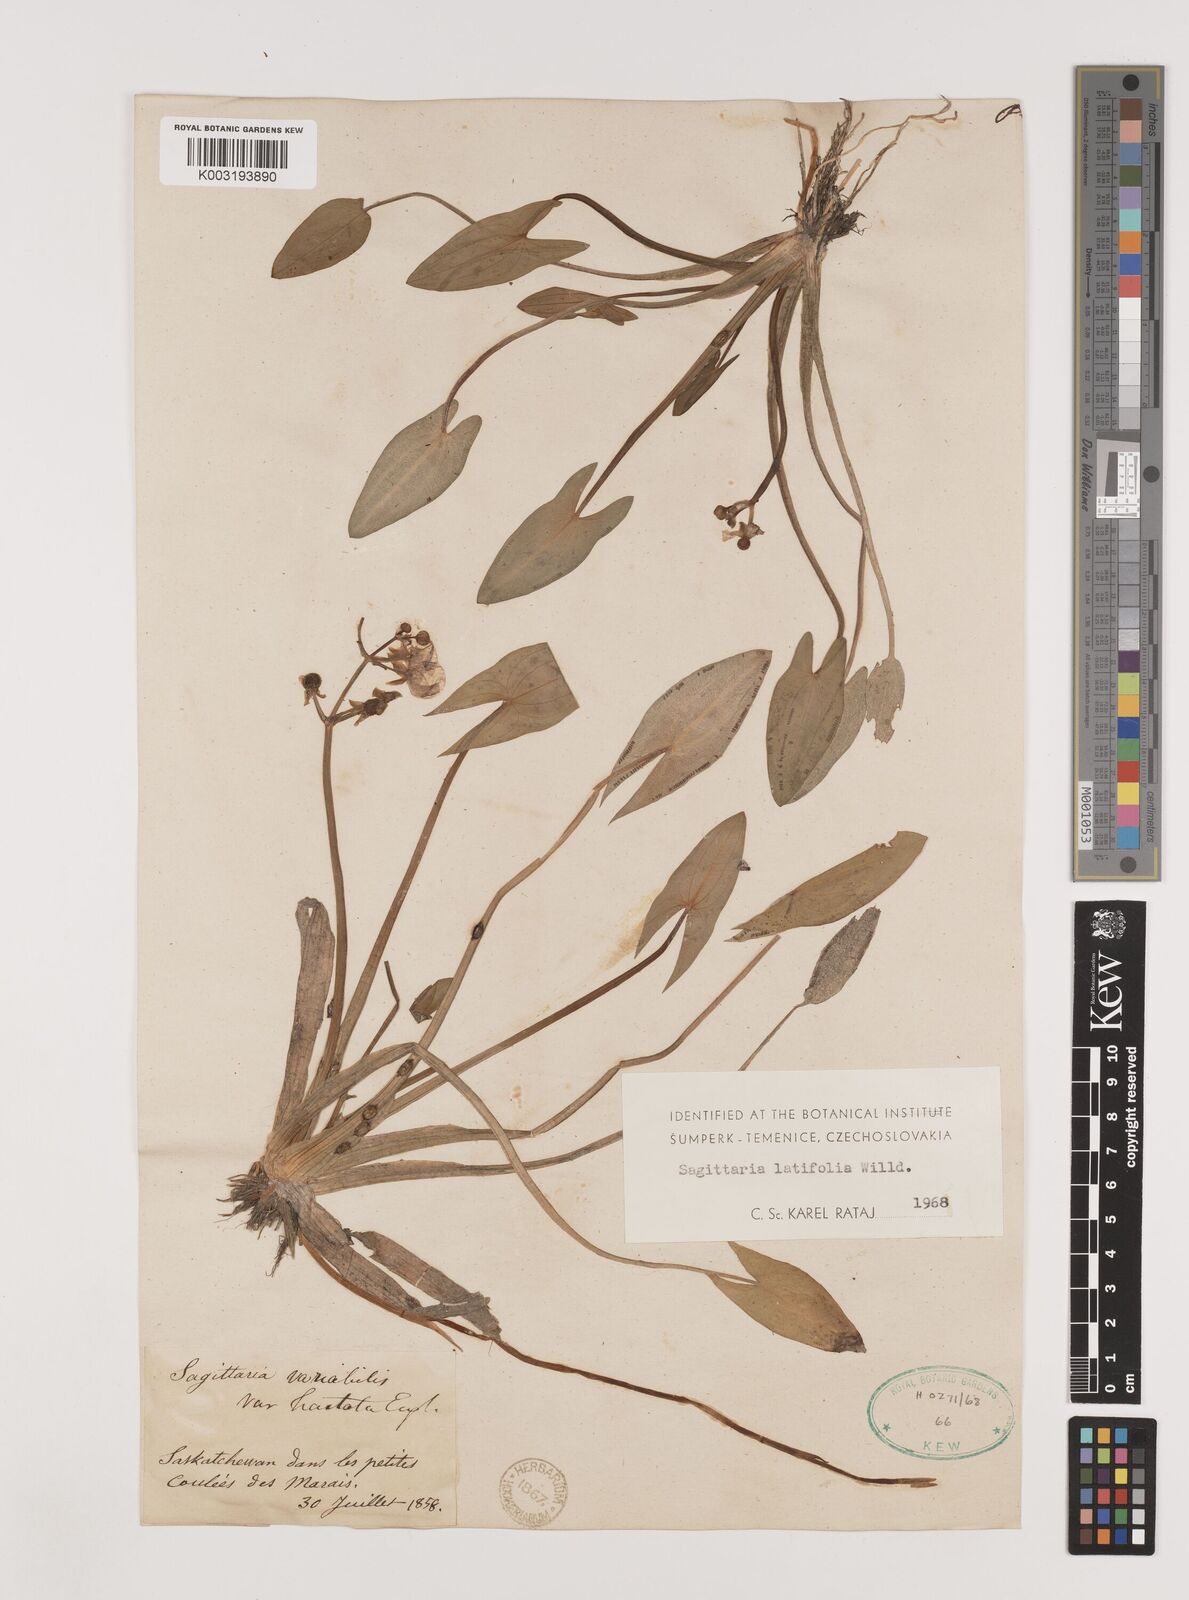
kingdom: Plantae
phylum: Tracheophyta
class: Liliopsida
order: Alismatales
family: Alismataceae
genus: Sagittaria
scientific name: Sagittaria latifolia
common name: Duck-potato
